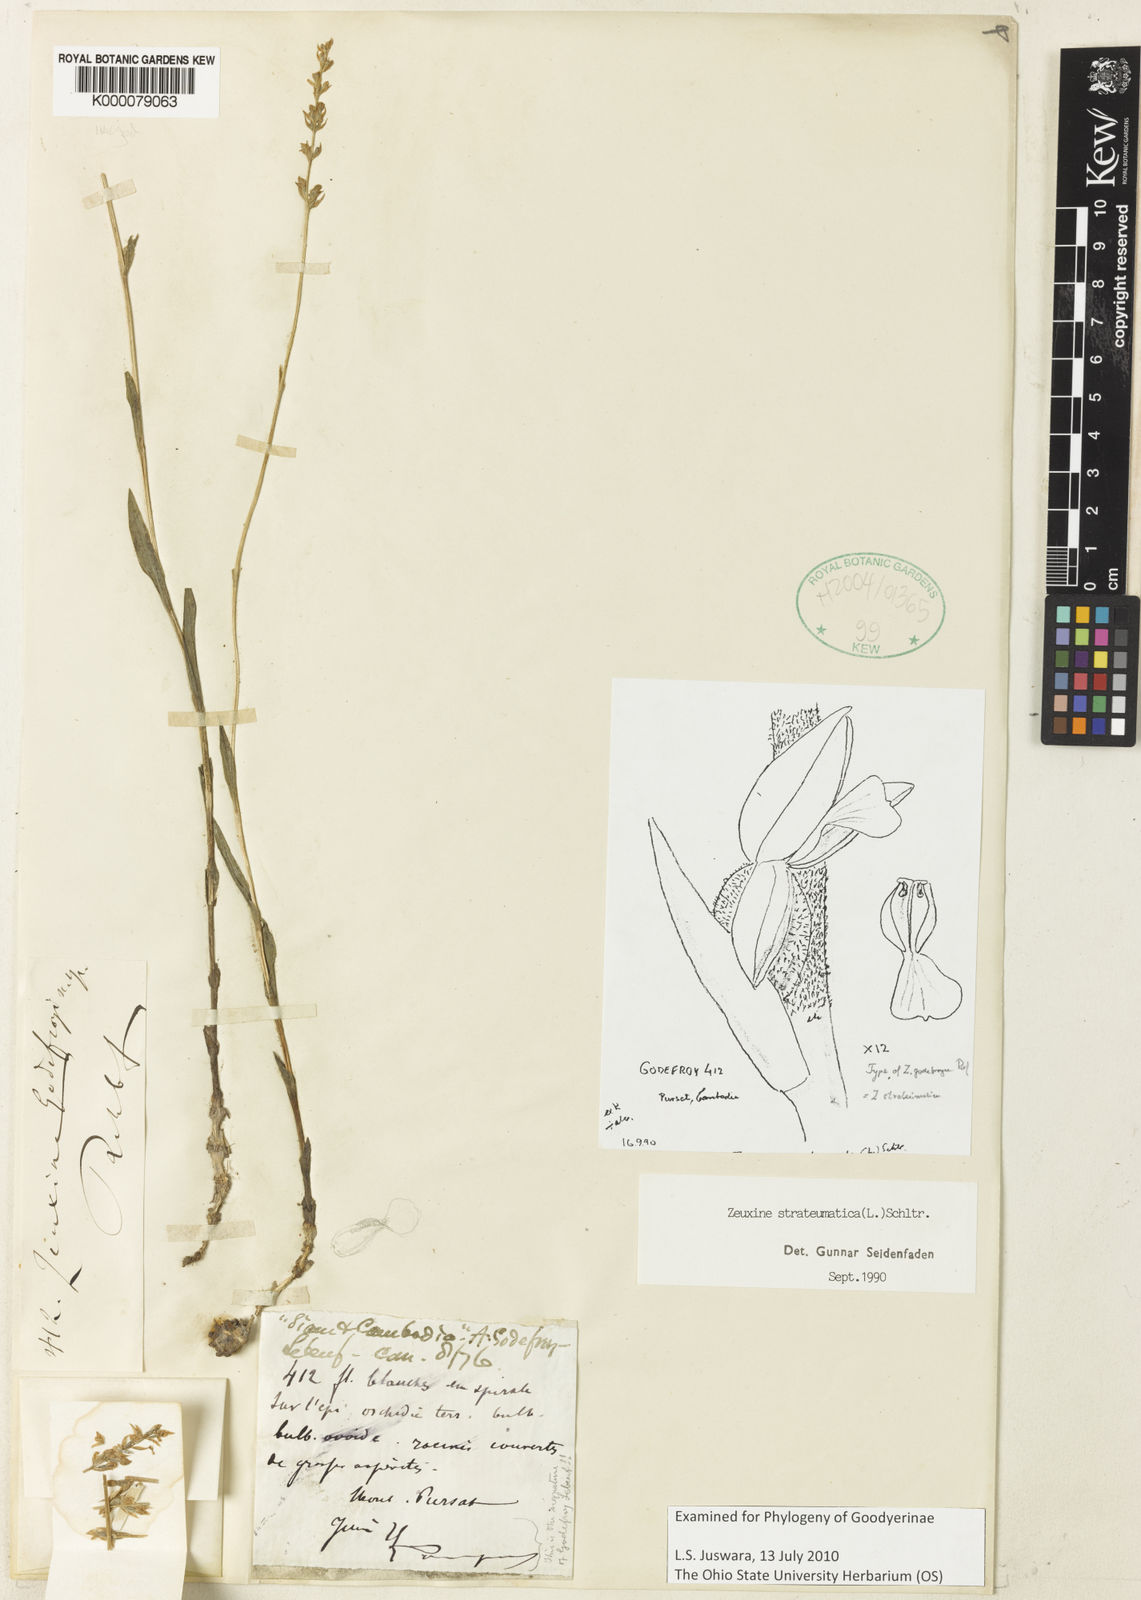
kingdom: Plantae
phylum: Tracheophyta
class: Liliopsida
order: Asparagales
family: Orchidaceae
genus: Zeuxine
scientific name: Zeuxine strateumatica
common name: Soldier's orchid
